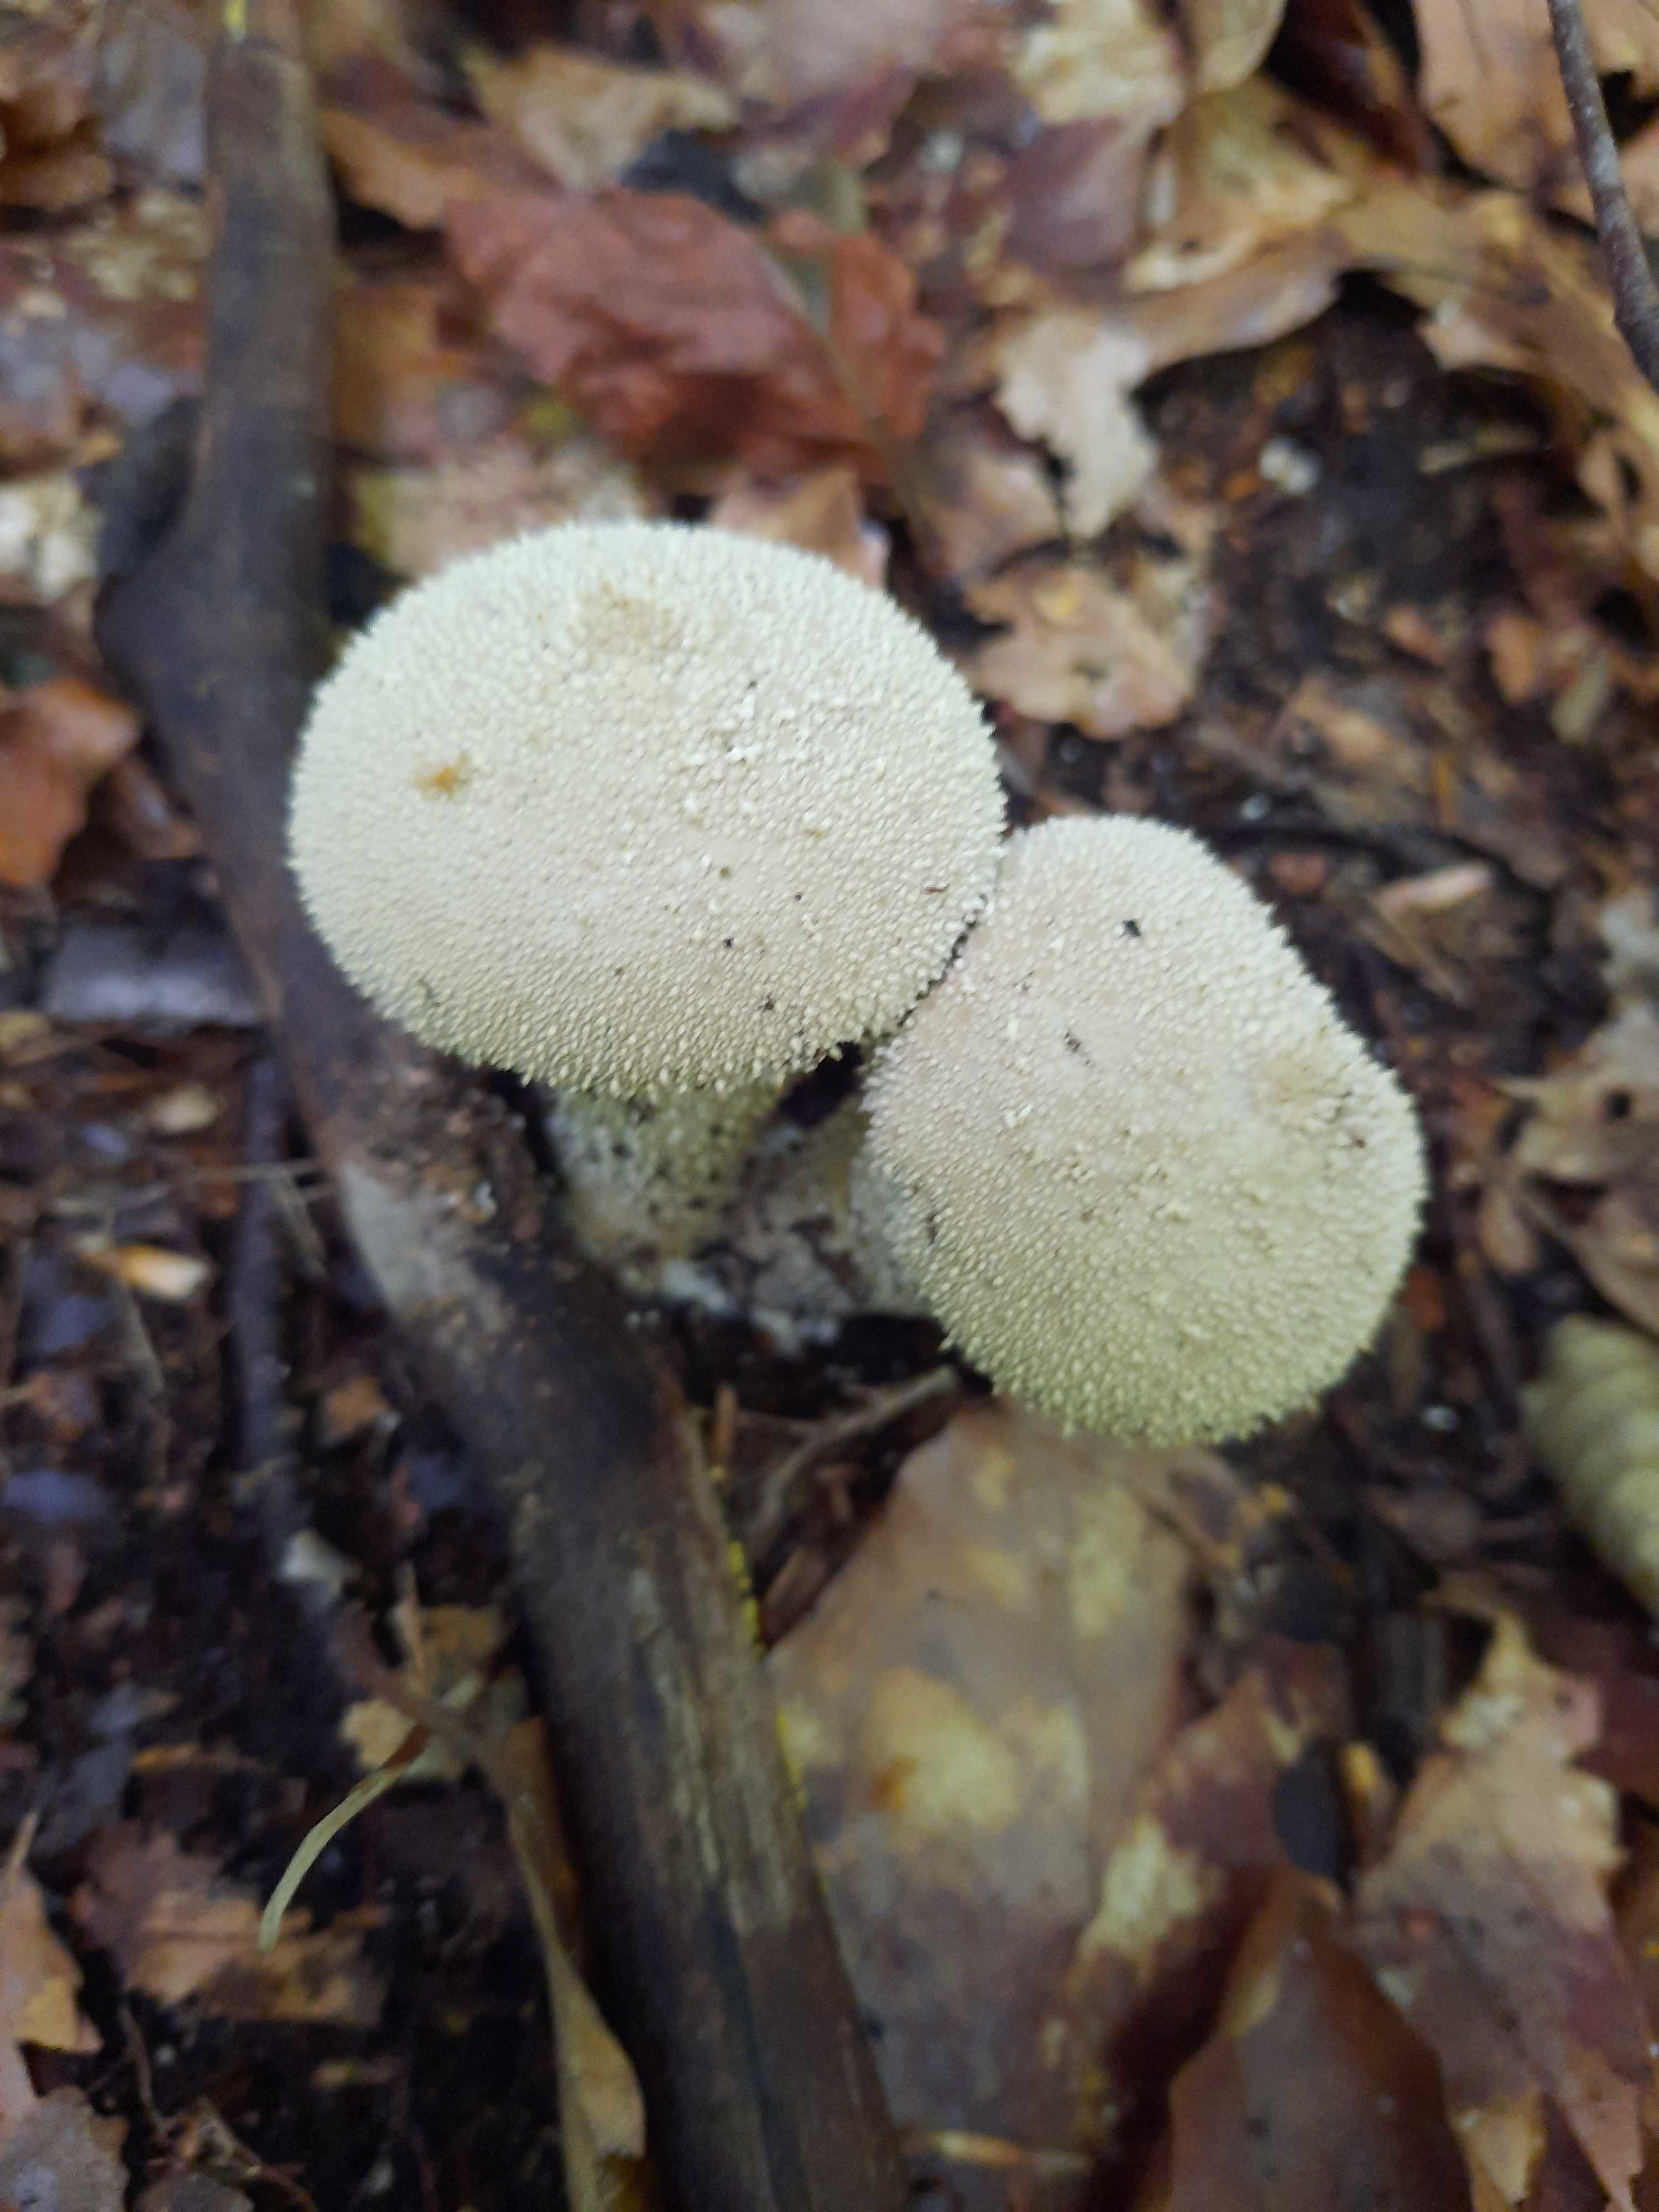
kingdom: Fungi
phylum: Basidiomycota
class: Agaricomycetes
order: Agaricales
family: Lycoperdaceae
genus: Lycoperdon
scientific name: Lycoperdon perlatum
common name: krystal-støvbold
